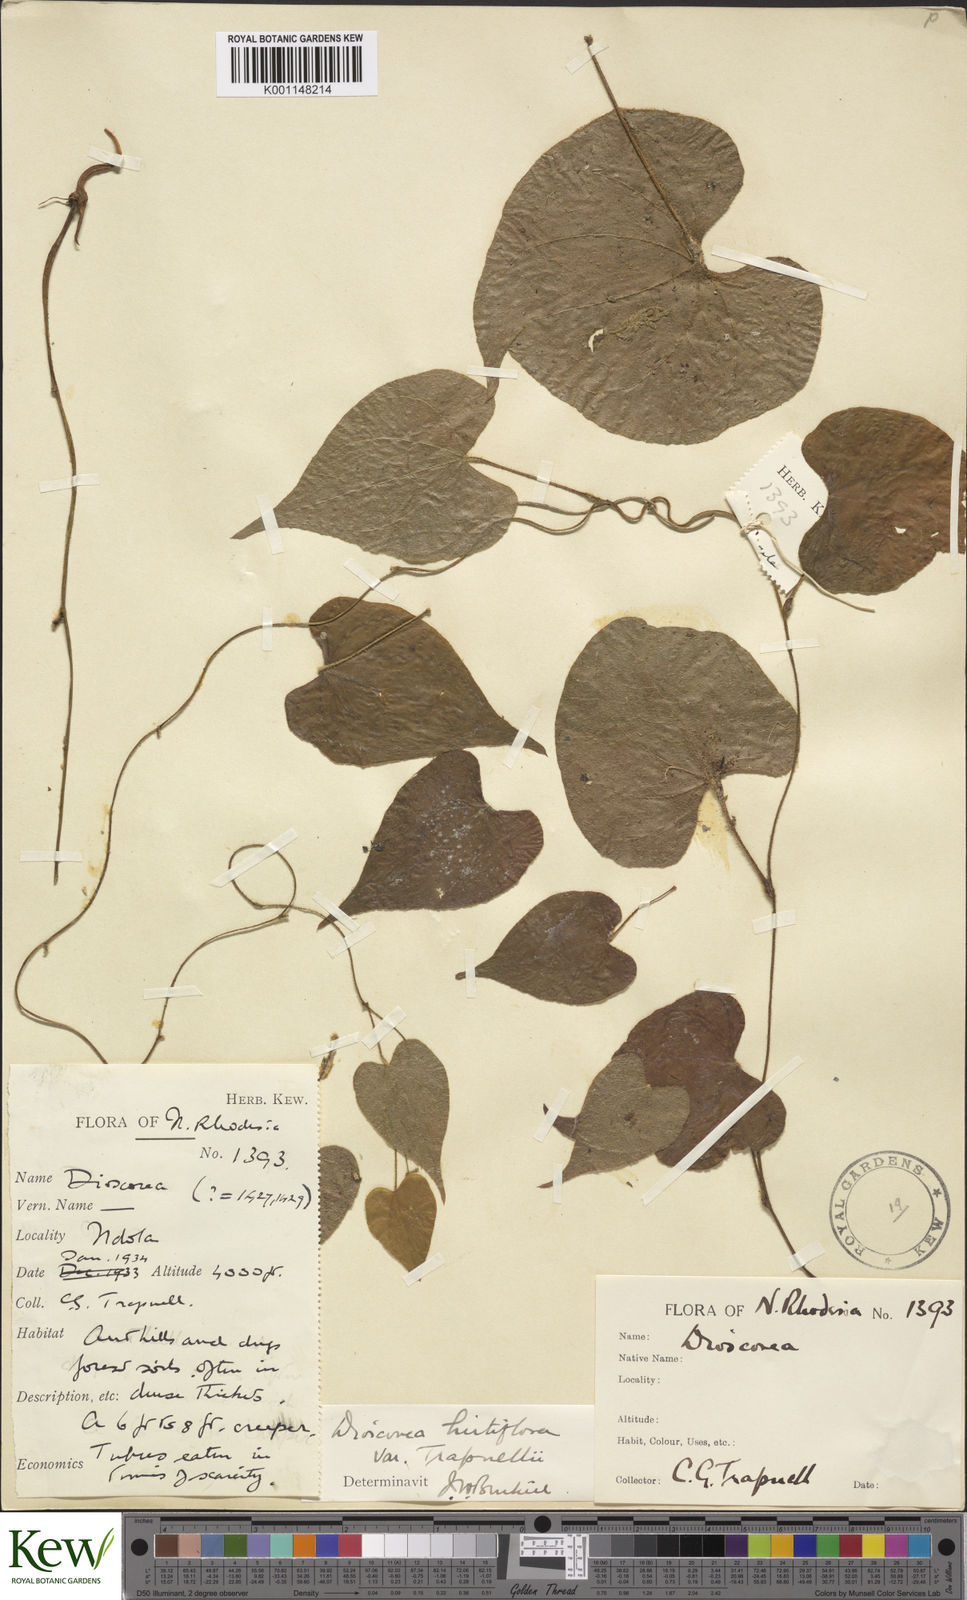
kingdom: Plantae
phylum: Tracheophyta
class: Liliopsida
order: Dioscoreales
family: Dioscoreaceae
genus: Dioscorea
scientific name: Dioscorea hirtiflora
